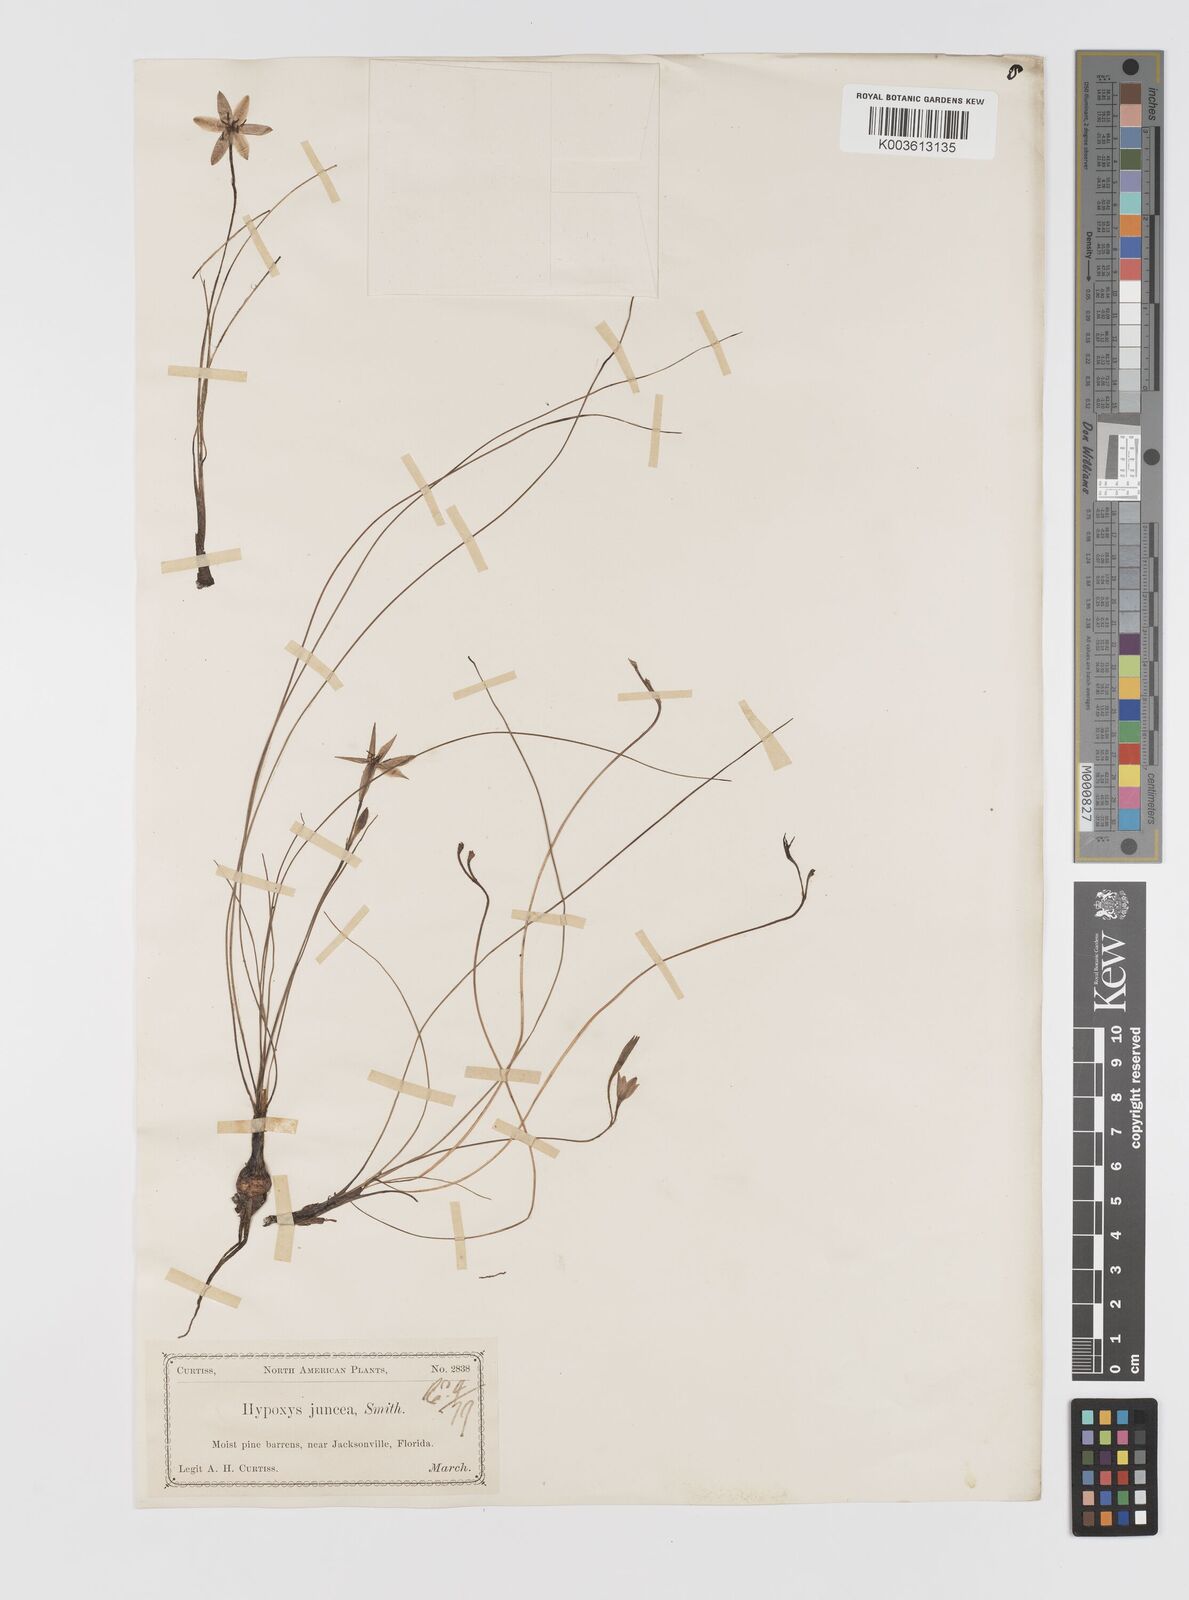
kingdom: Plantae
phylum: Tracheophyta
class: Liliopsida
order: Asparagales
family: Hypoxidaceae
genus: Hypoxis
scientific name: Hypoxis juncea
